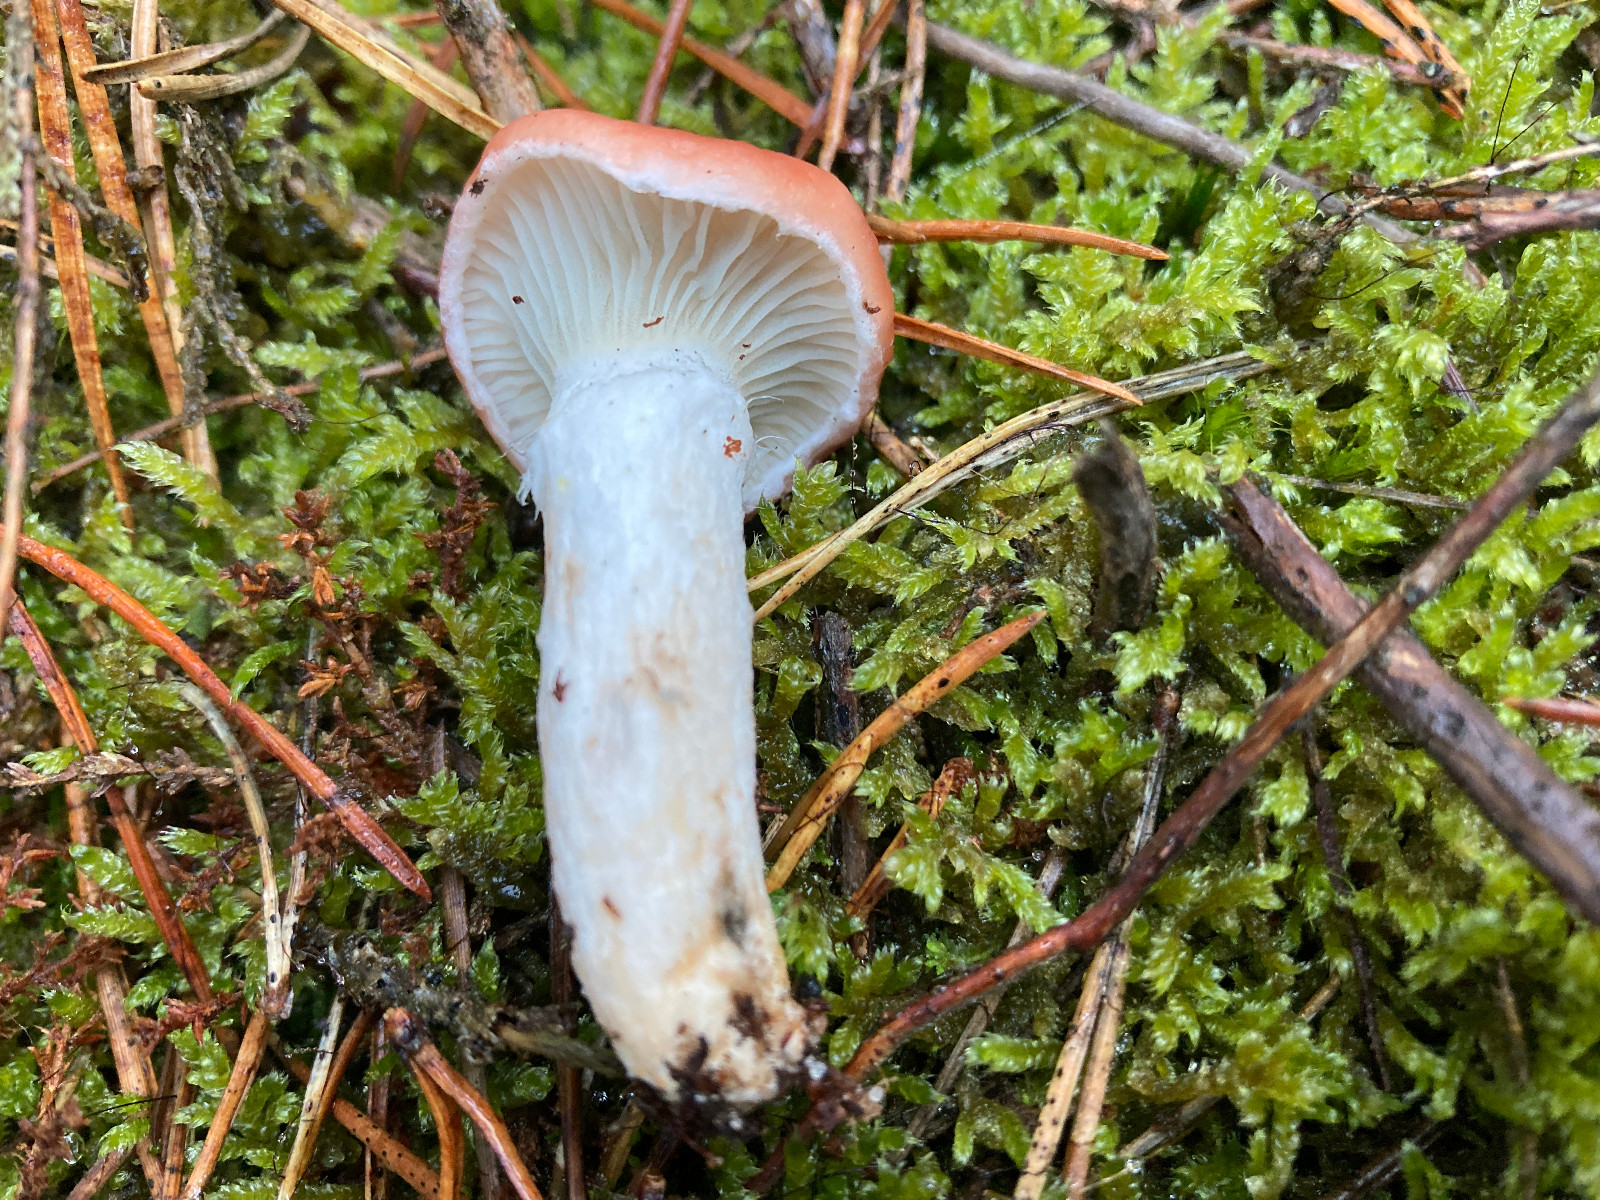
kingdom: Fungi
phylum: Basidiomycota
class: Agaricomycetes
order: Boletales
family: Gomphidiaceae
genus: Gomphidius
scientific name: Gomphidius roseus
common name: rosenrød slimslør
